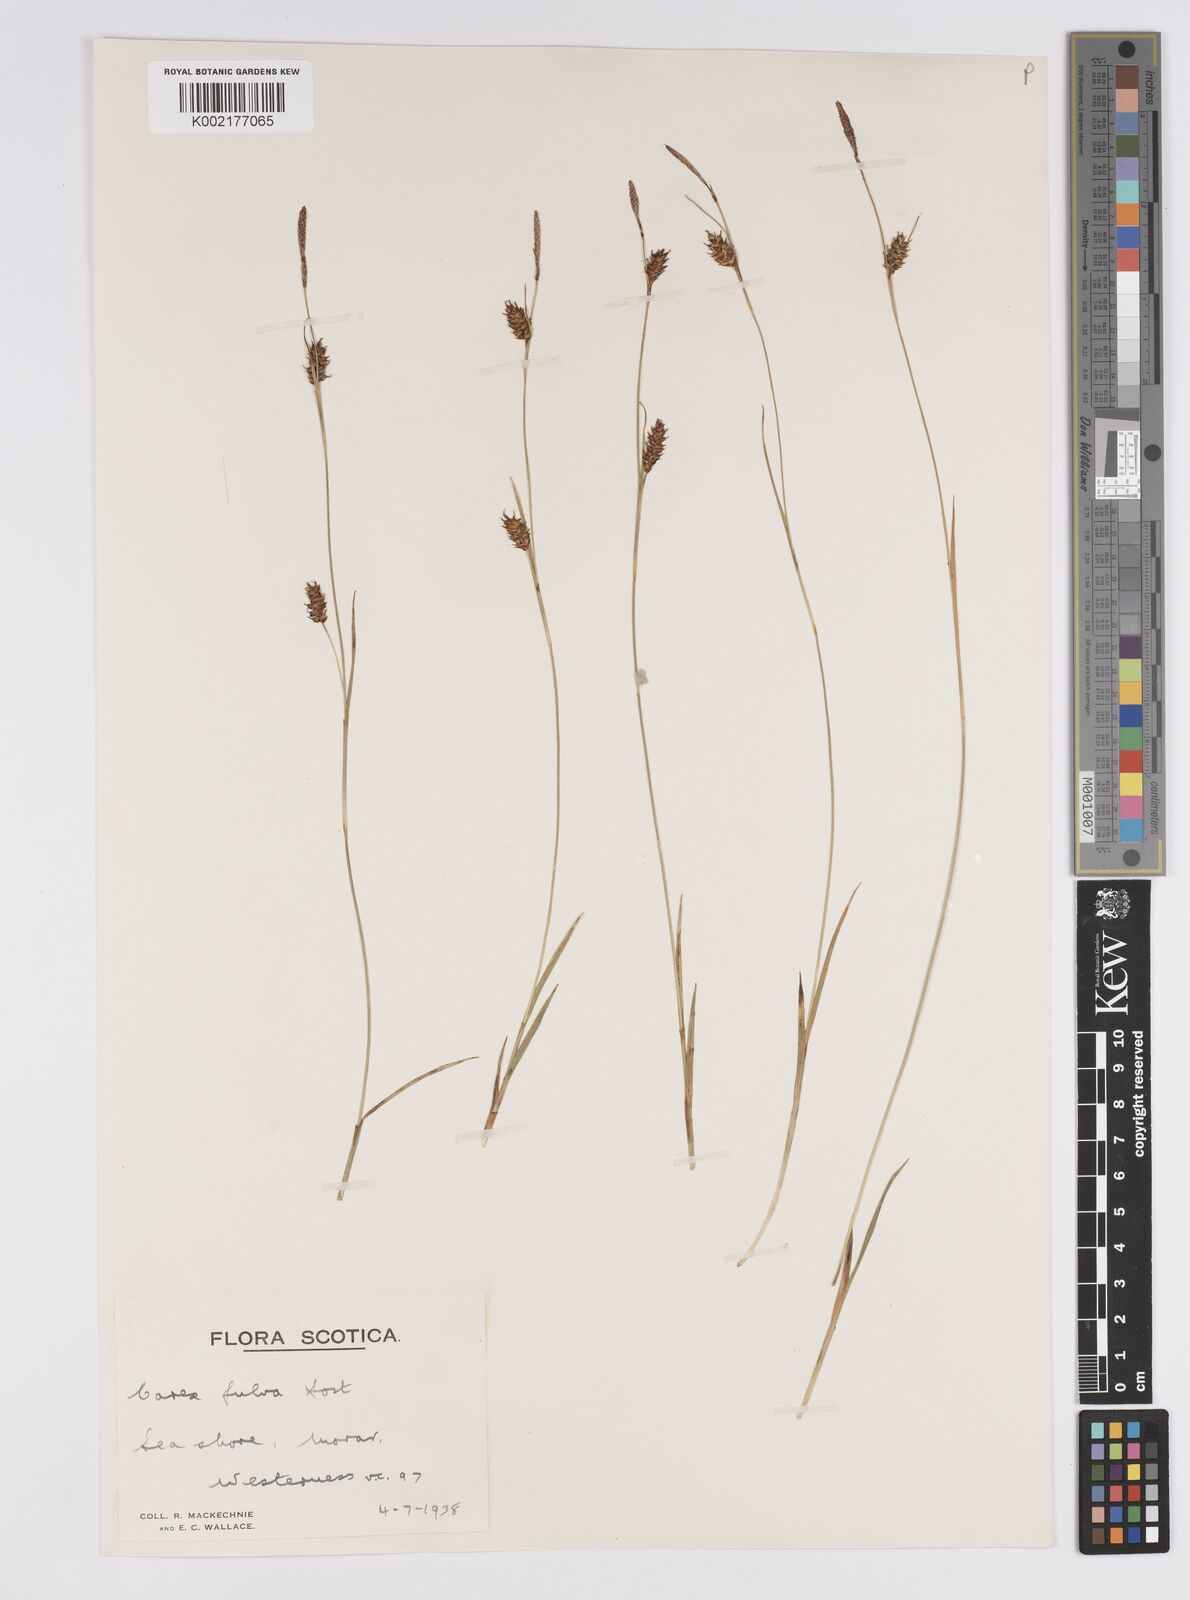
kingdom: Plantae
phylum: Tracheophyta
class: Liliopsida
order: Poales
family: Cyperaceae
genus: Carex
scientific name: Carex hostiana
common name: Tawny sedge
